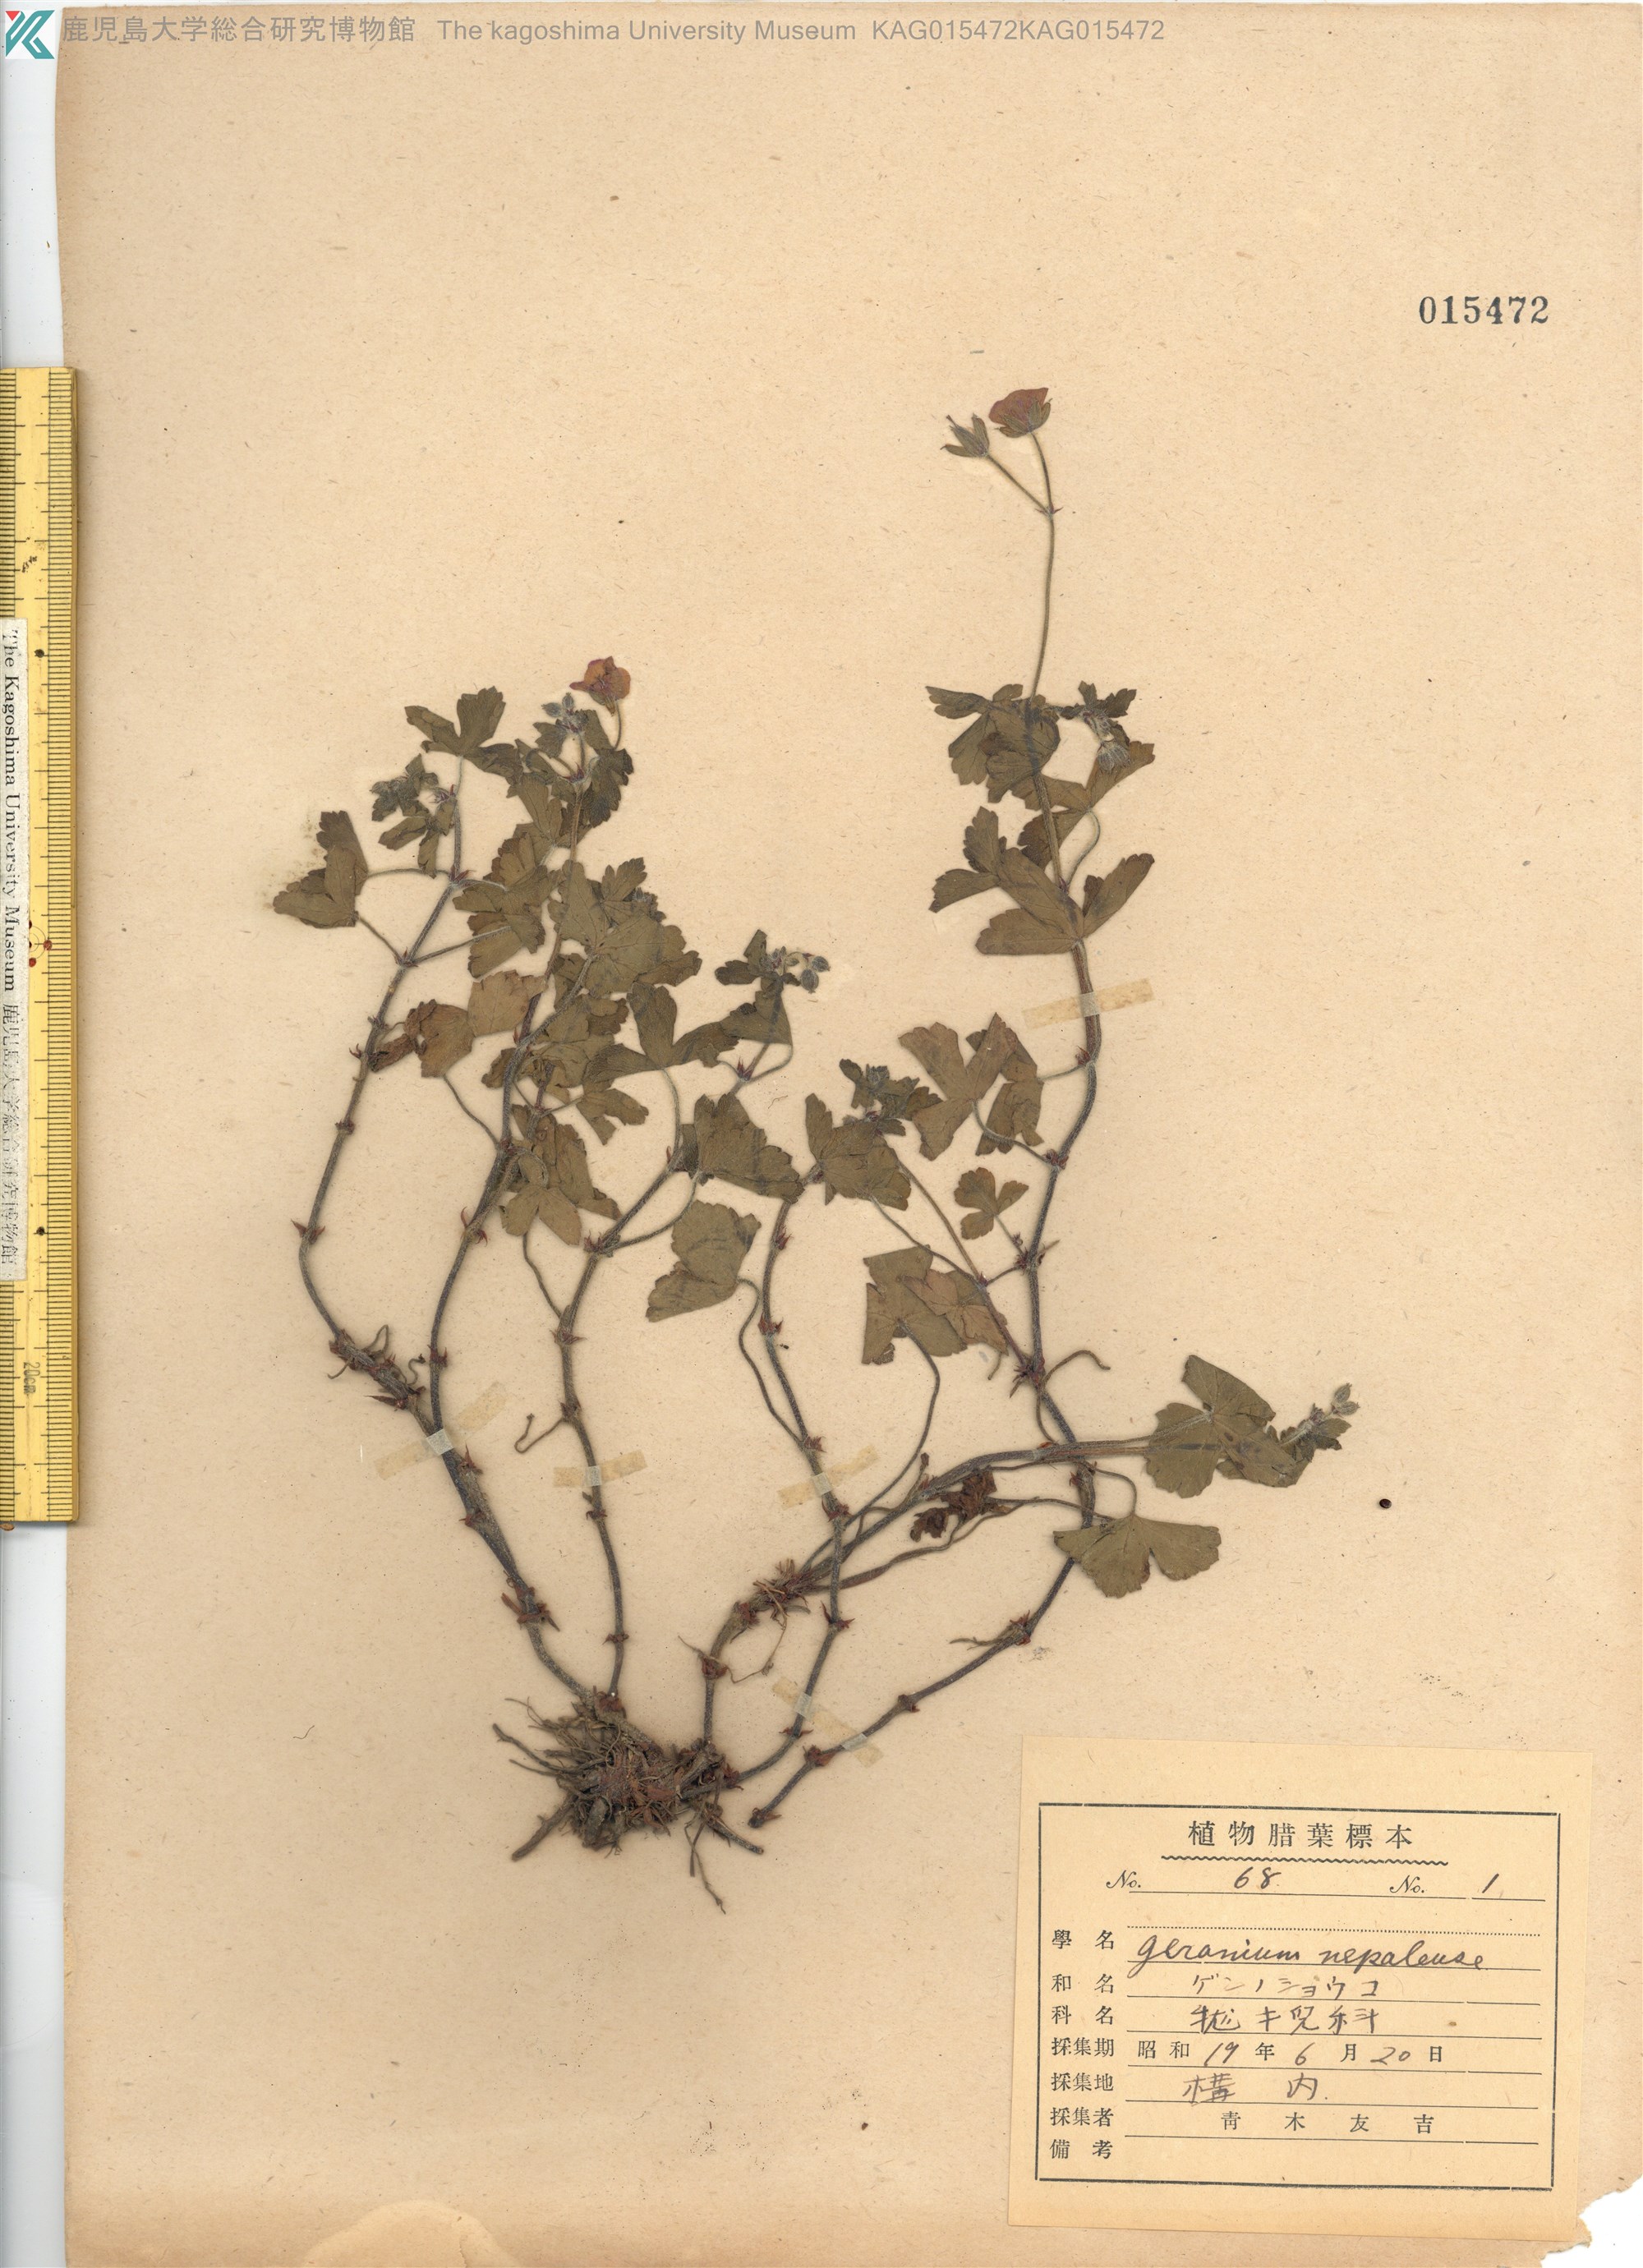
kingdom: Plantae
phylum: Tracheophyta
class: Magnoliopsida
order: Geraniales
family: Geraniaceae
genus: Geranium
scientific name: Geranium thunbergii
